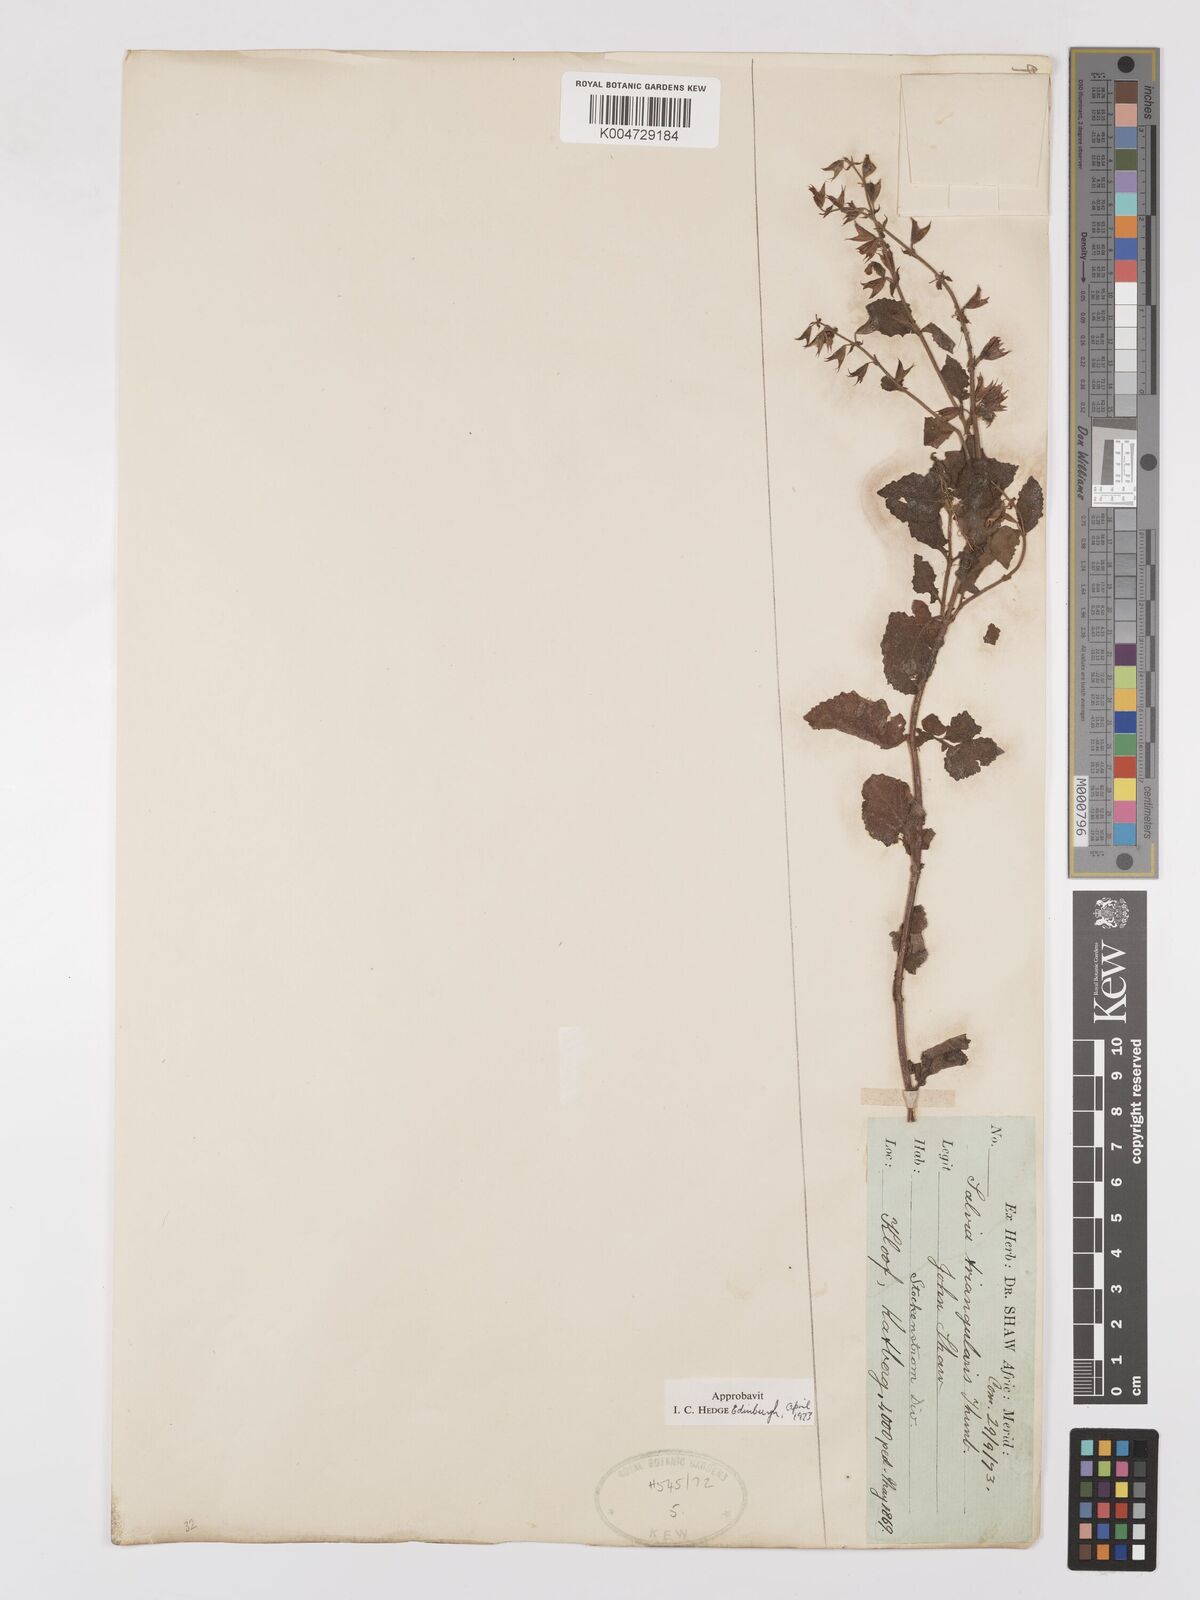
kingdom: Plantae
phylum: Tracheophyta
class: Magnoliopsida
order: Lamiales
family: Lamiaceae
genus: Salvia
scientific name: Salvia triangularis
